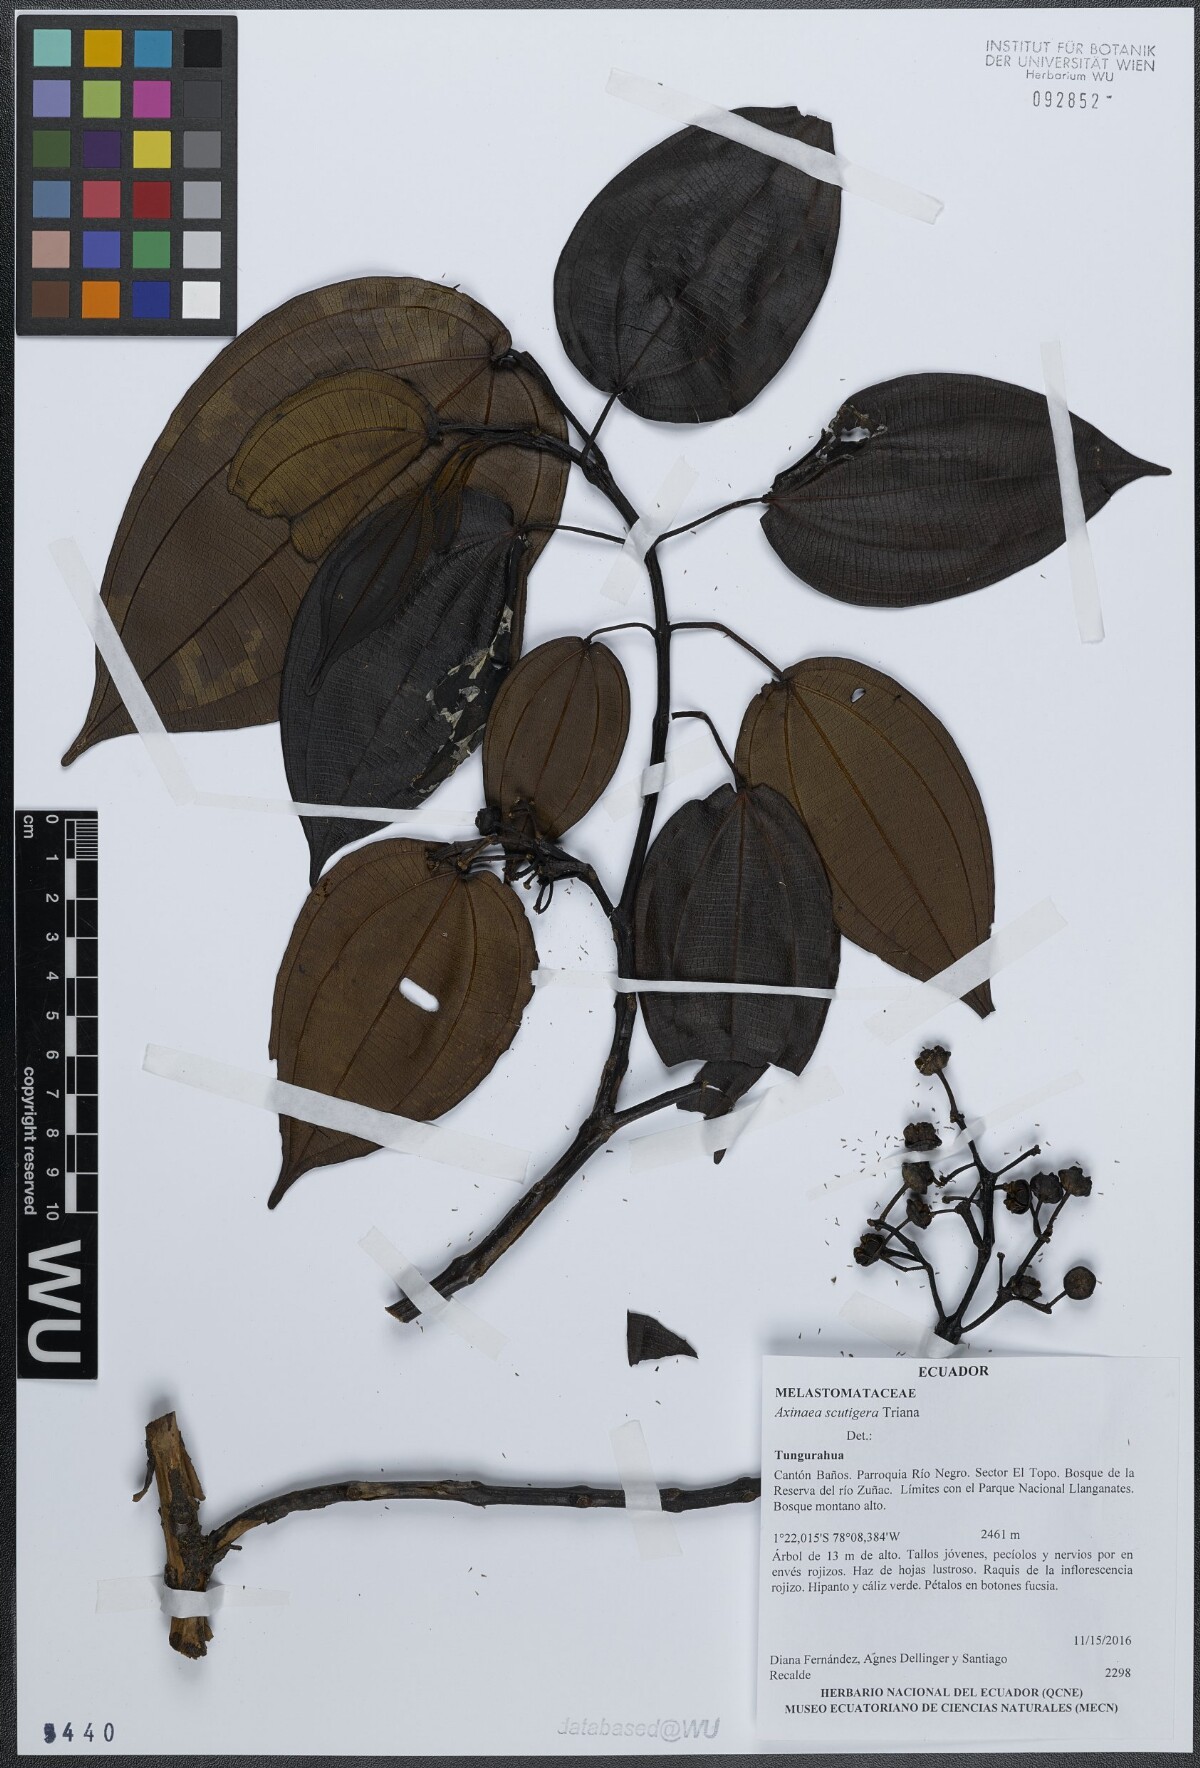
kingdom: Plantae
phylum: Tracheophyta
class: Magnoliopsida
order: Myrtales
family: Melastomataceae
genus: Axinaea
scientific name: Axinaea scutigera
